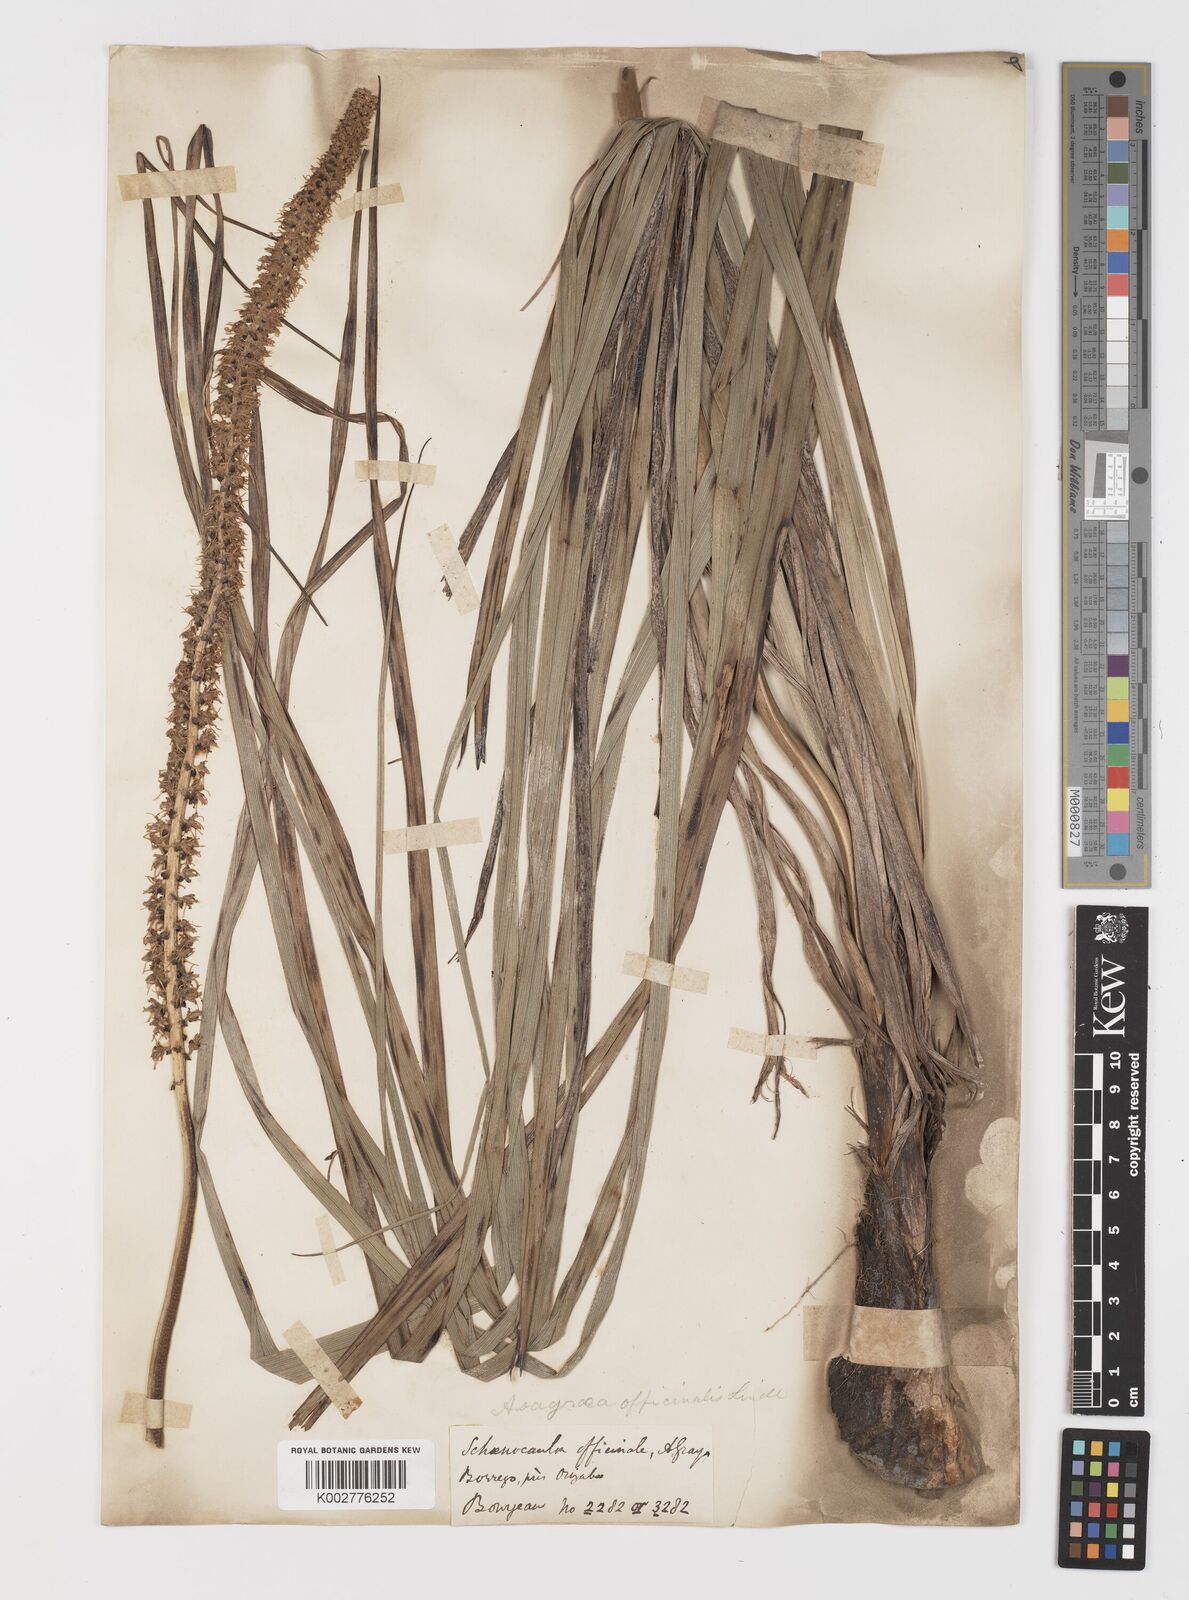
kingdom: Plantae
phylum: Tracheophyta
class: Liliopsida
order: Liliales
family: Melanthiaceae
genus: Schoenocaulon
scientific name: Schoenocaulon officinale
